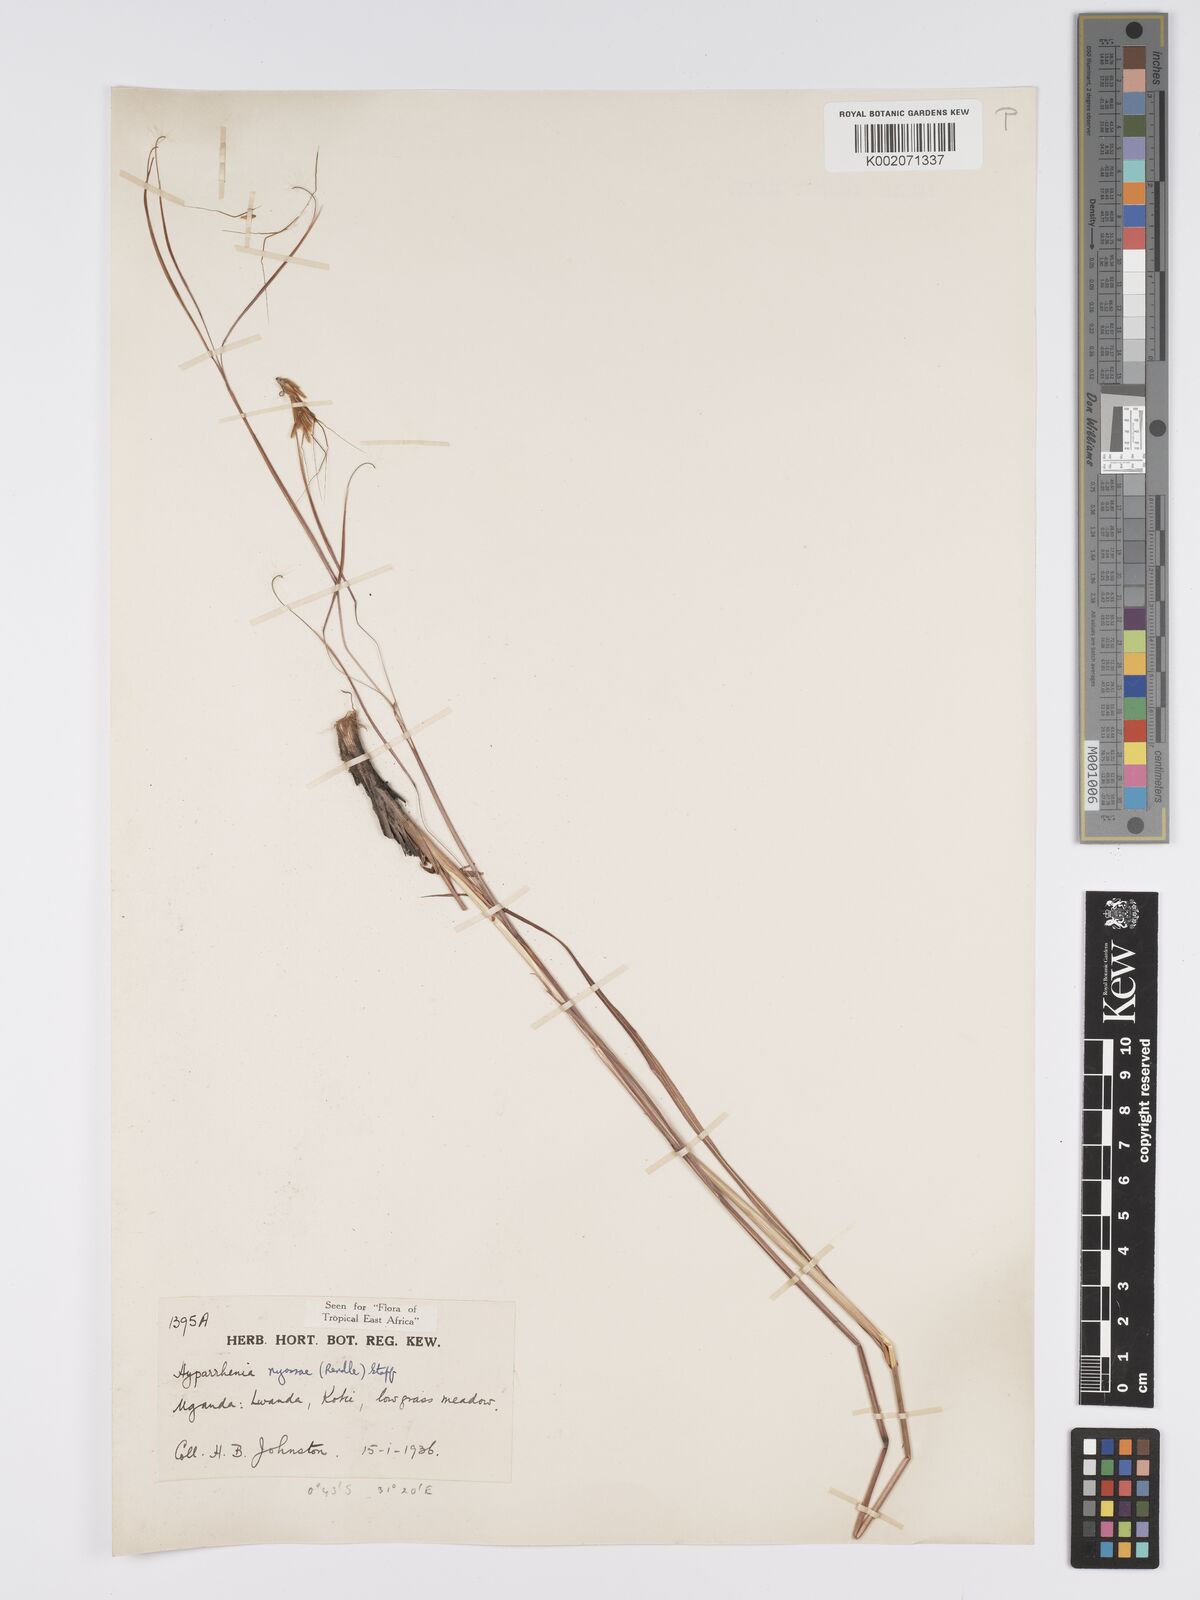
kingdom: Plantae
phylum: Tracheophyta
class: Liliopsida
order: Poales
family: Poaceae
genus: Hyparrhenia
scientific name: Hyparrhenia nyassae
